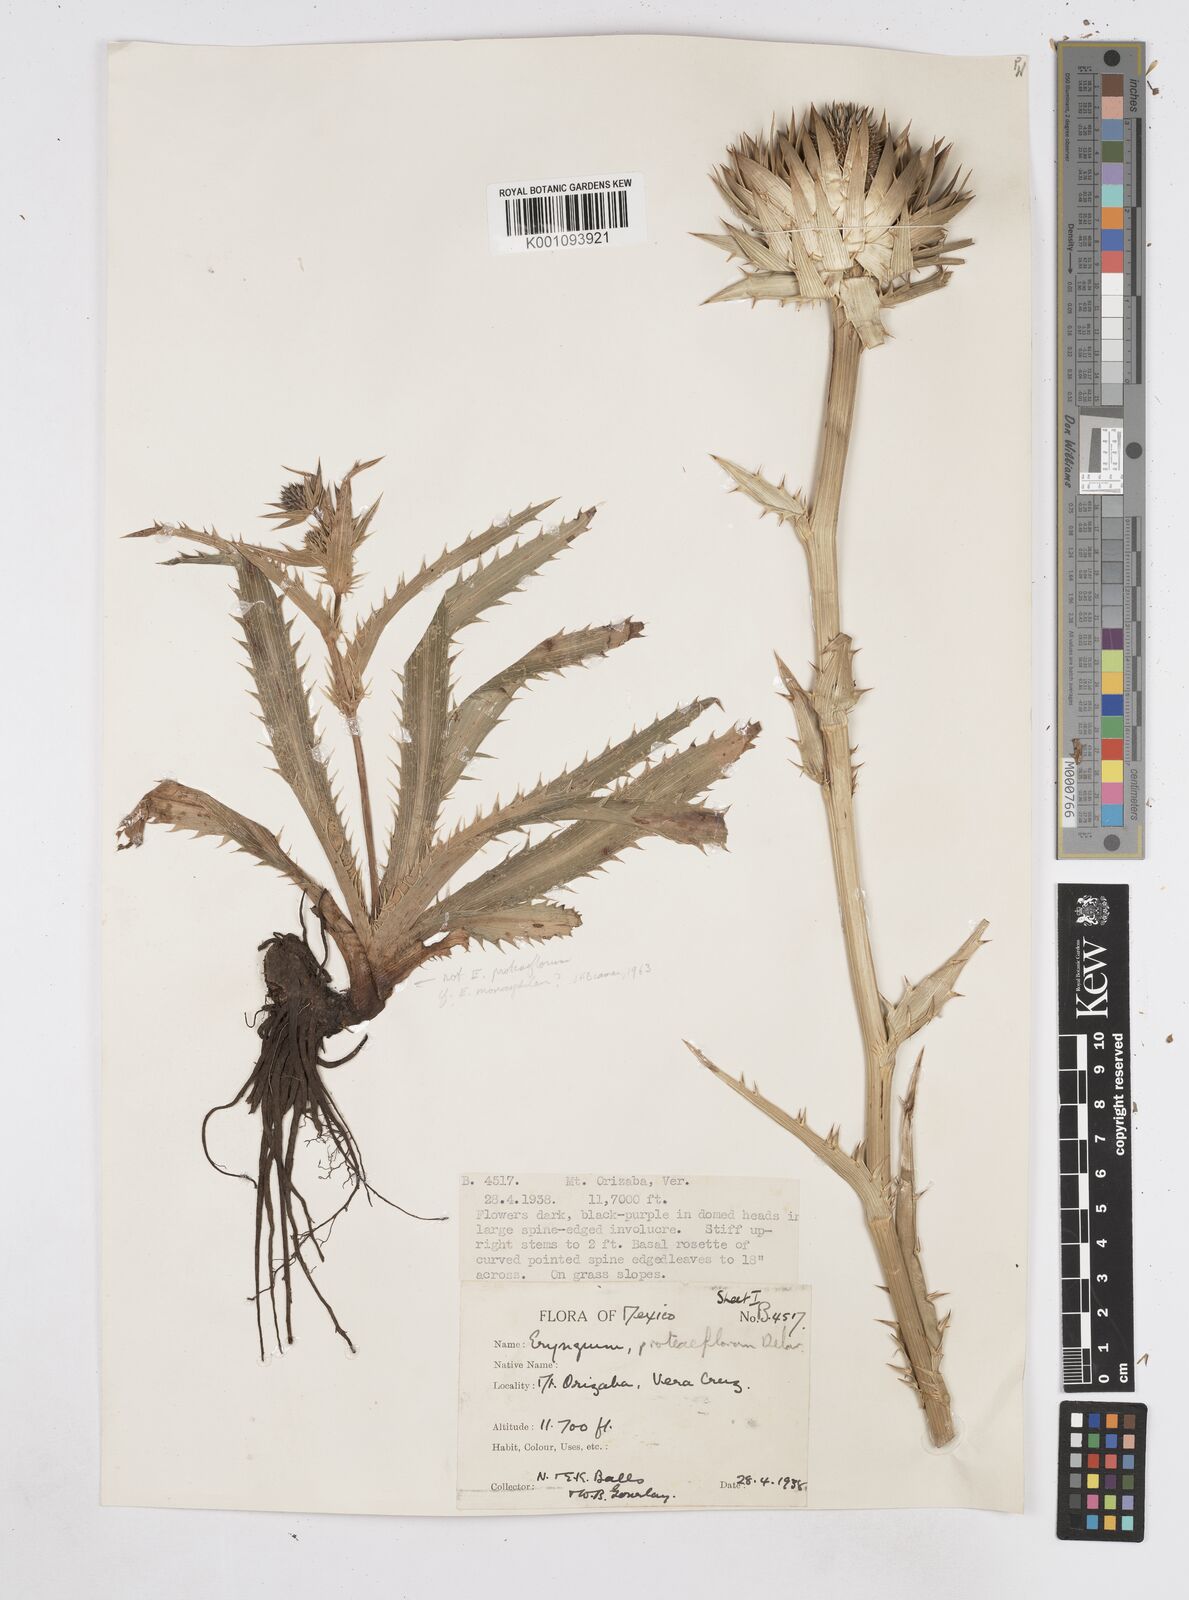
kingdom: Plantae
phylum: Tracheophyta
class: Magnoliopsida
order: Apiales
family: Apiaceae
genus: Eryngium
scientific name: Eryngium proteiflorum
